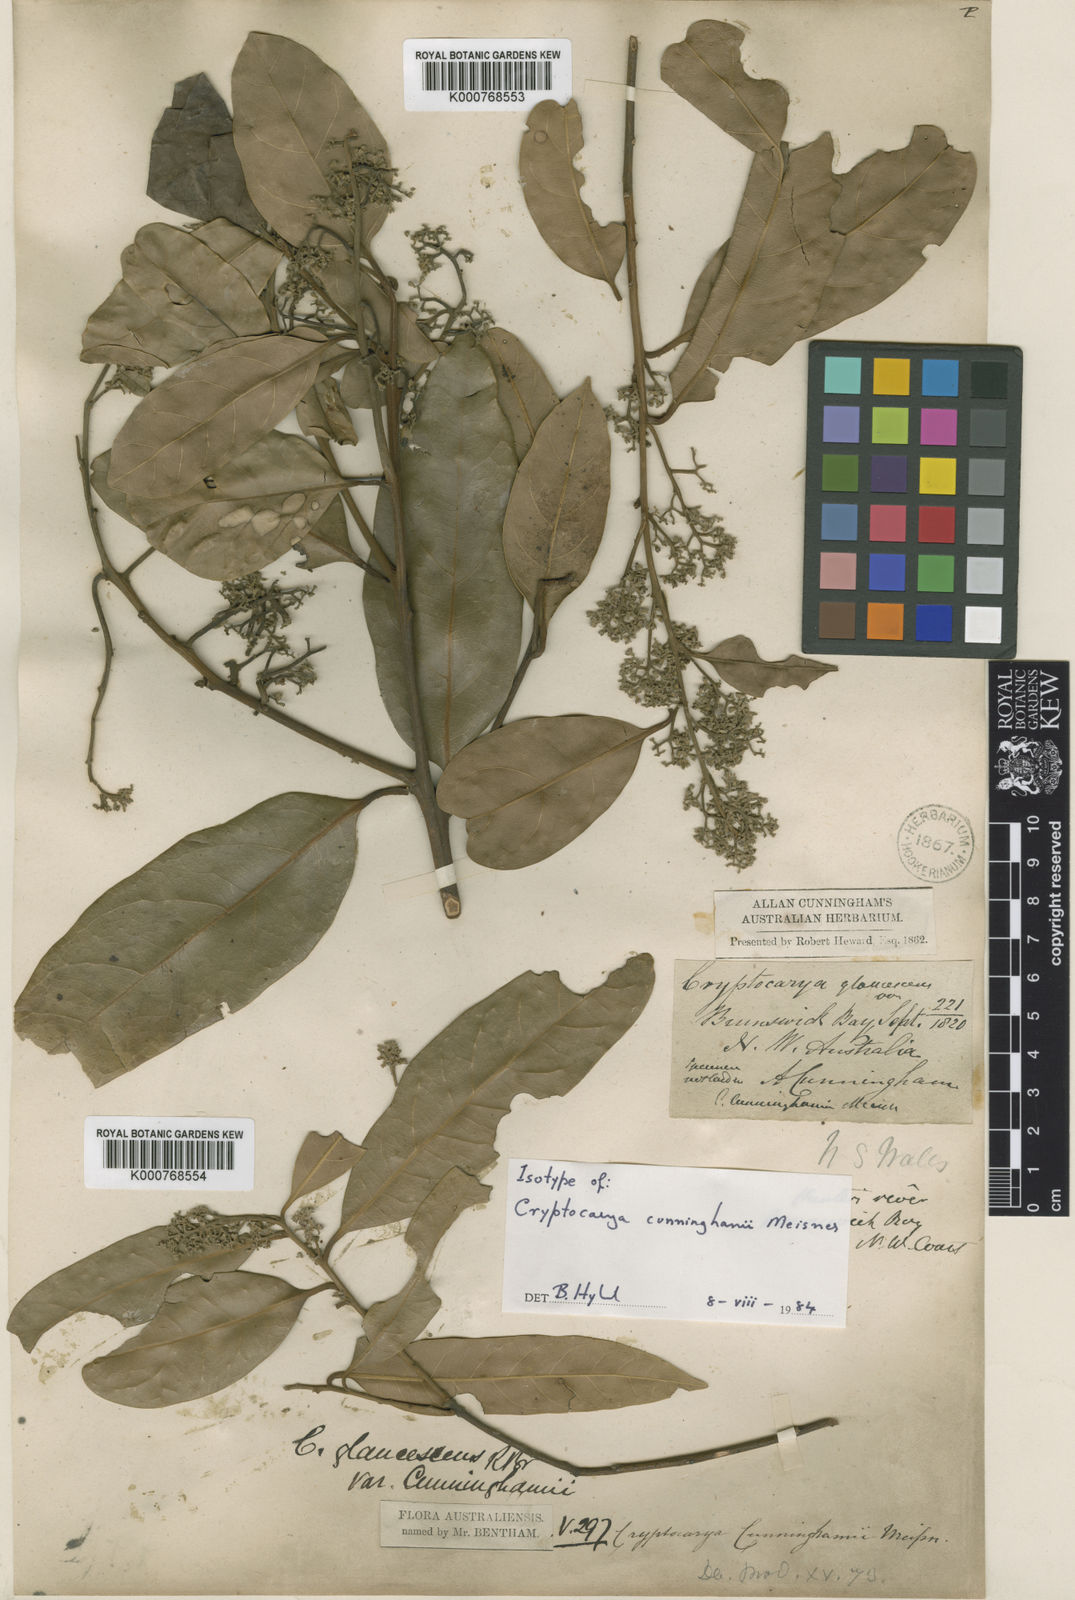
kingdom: Plantae
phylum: Tracheophyta
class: Magnoliopsida
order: Laurales
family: Lauraceae
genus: Cryptocarya
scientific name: Cryptocarya cunninghamii
